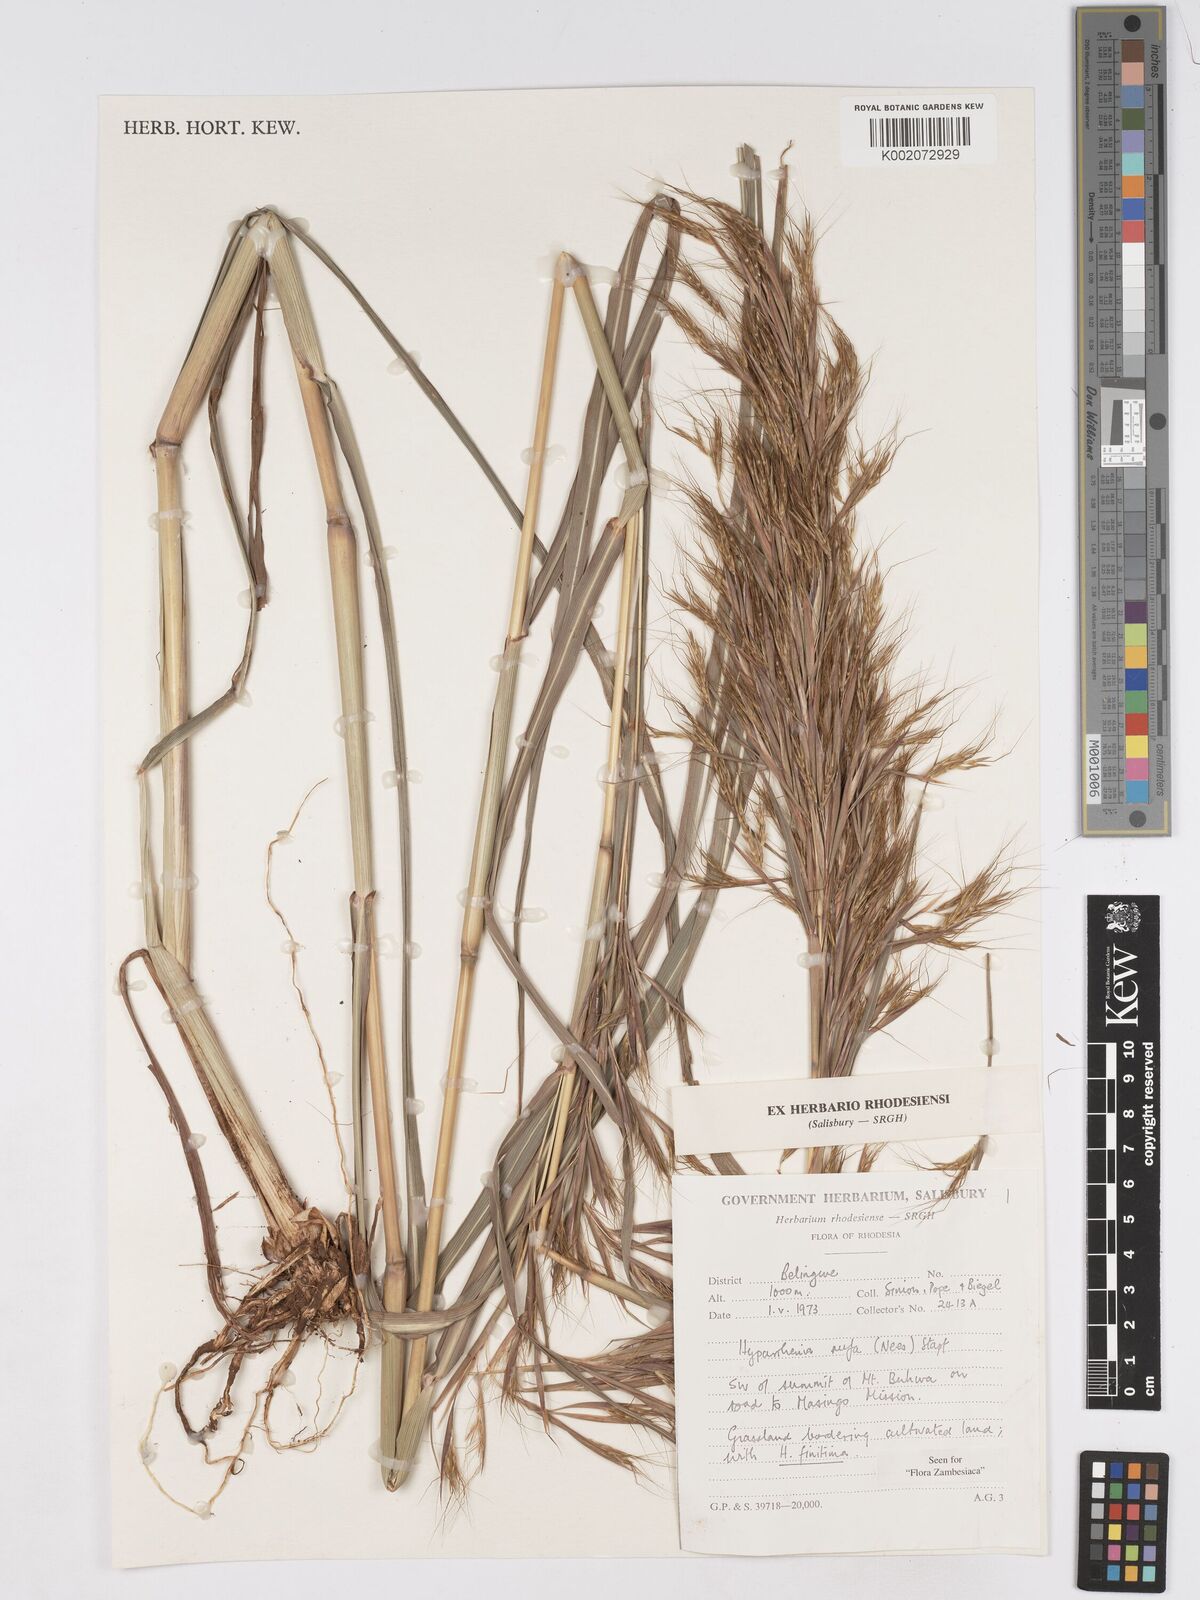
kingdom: Plantae
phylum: Tracheophyta
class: Liliopsida
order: Poales
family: Poaceae
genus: Hyparrhenia
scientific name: Hyparrhenia rufa
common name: Jaraguagrass
